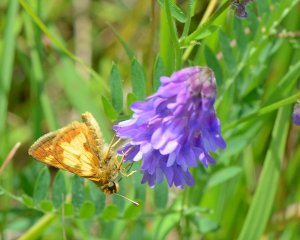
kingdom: Animalia
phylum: Arthropoda
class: Insecta
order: Lepidoptera
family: Hesperiidae
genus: Polites
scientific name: Polites coras
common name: Peck's Skipper
